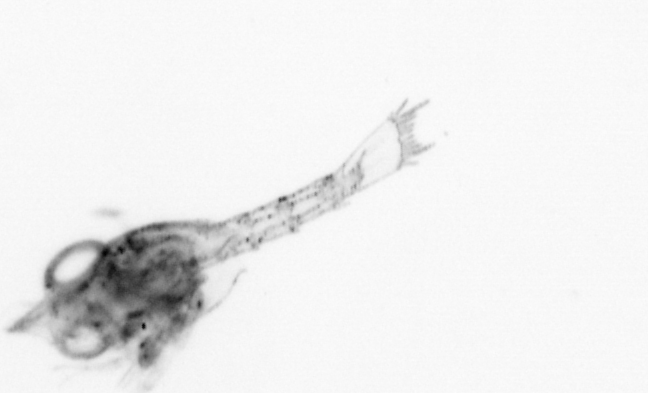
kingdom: Animalia
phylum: Arthropoda
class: Malacostraca
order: Decapoda
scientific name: Decapoda
